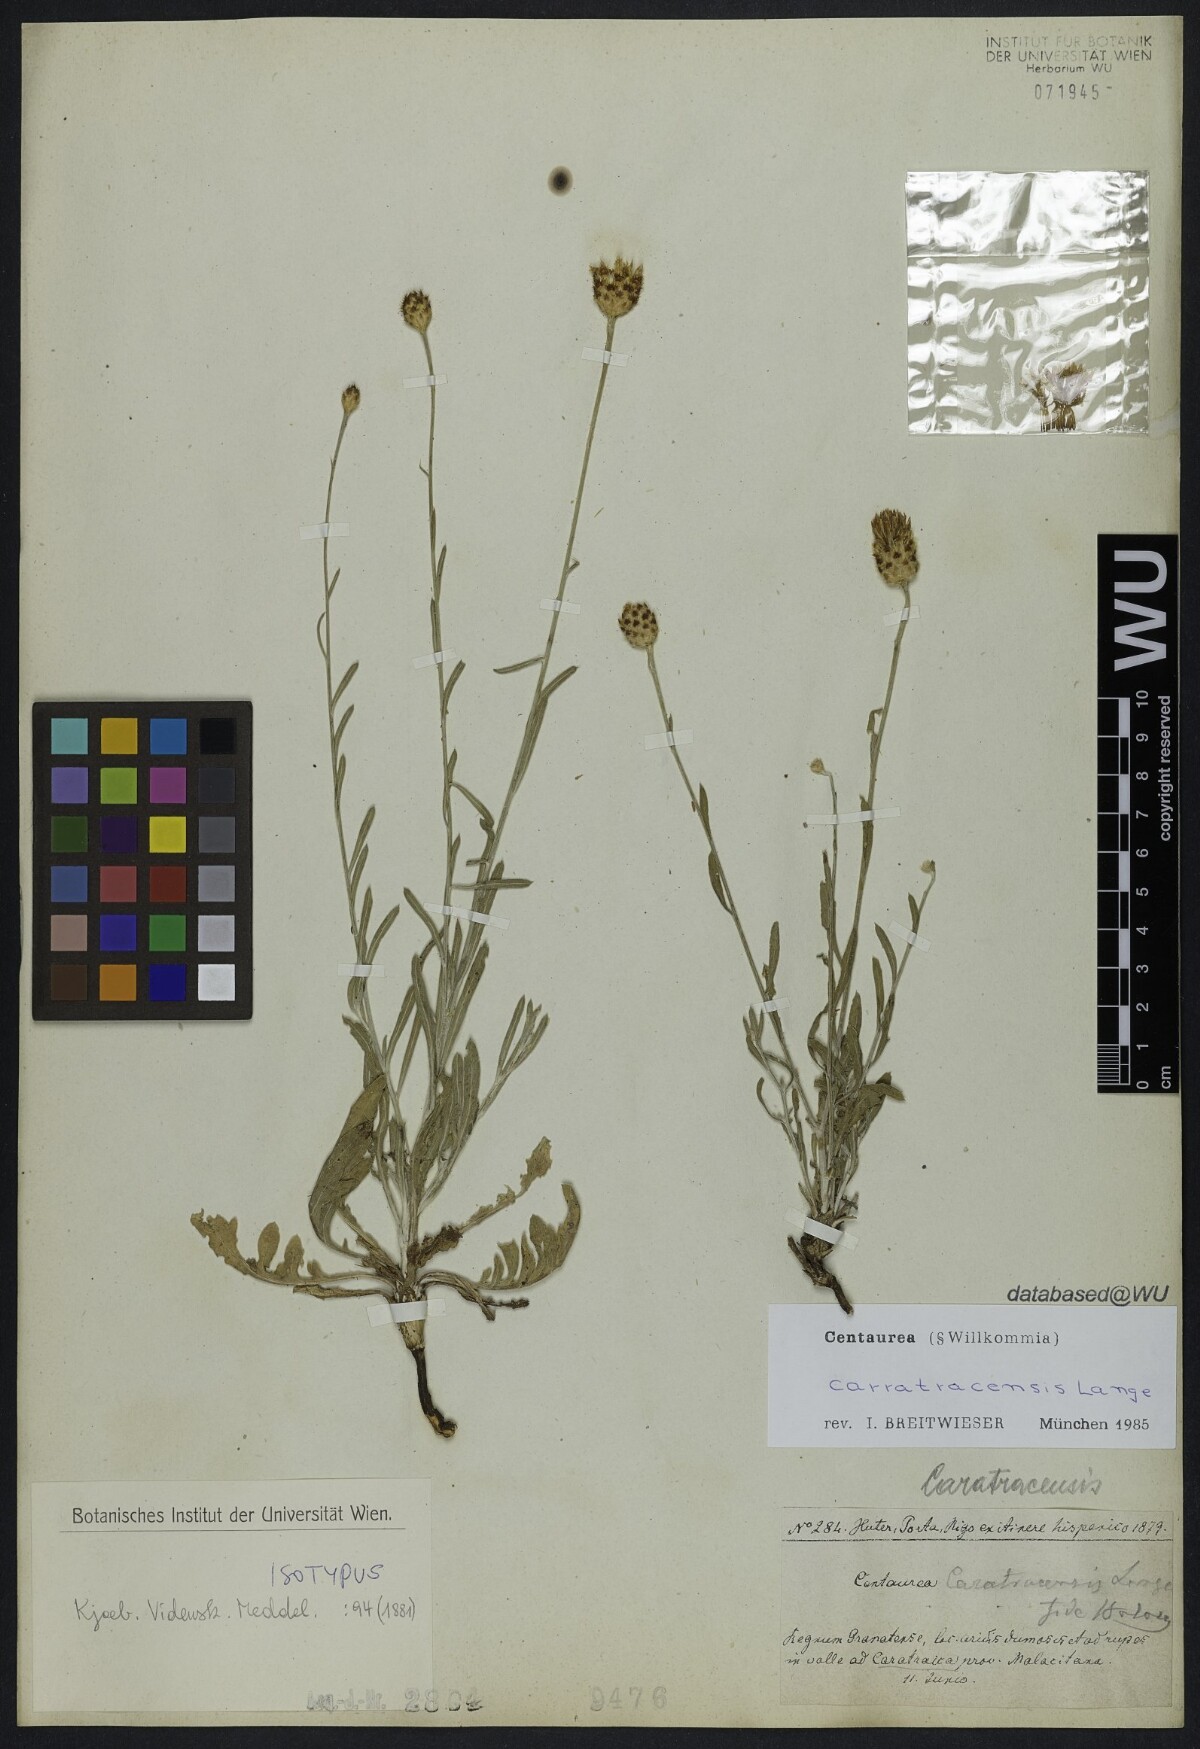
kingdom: Plantae
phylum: Tracheophyta
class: Magnoliopsida
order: Asterales
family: Asteraceae
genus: Centaurea
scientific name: Centaurea carratracensis
